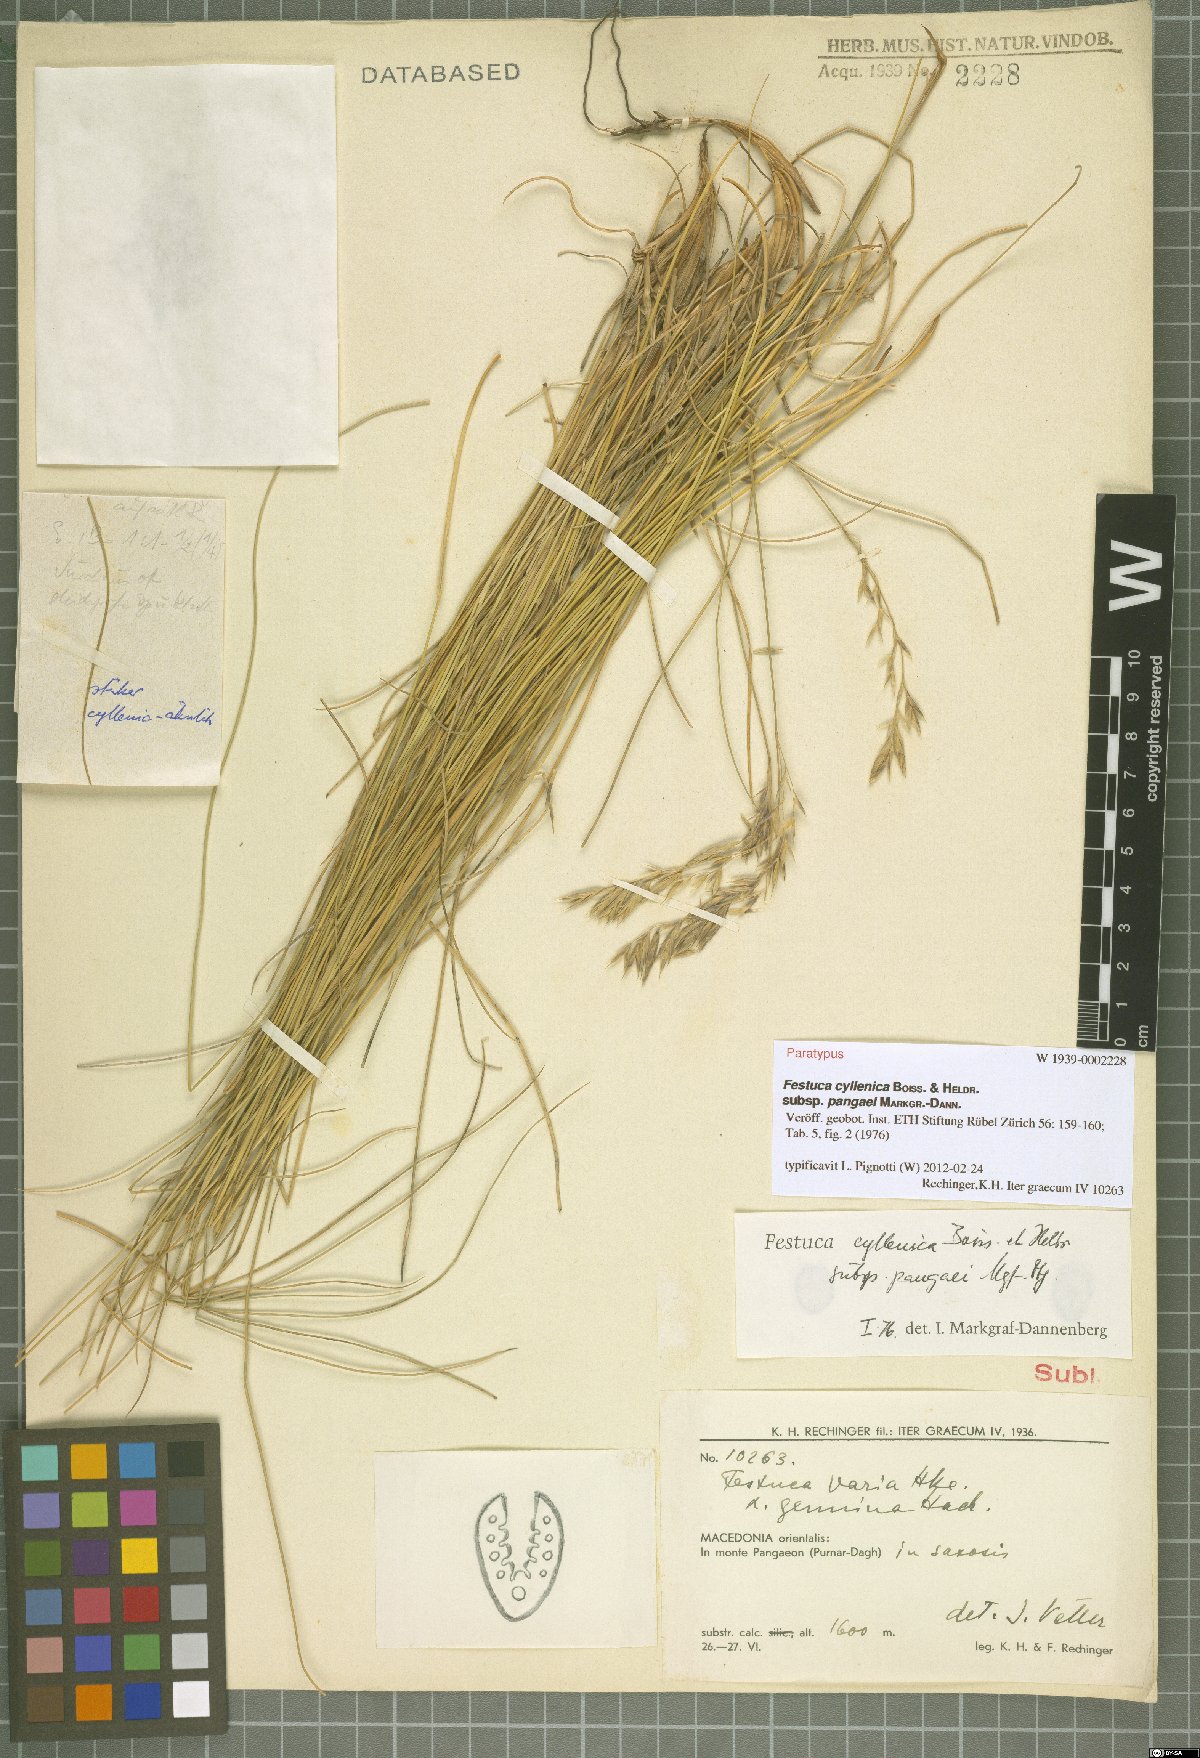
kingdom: Plantae
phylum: Tracheophyta
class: Liliopsida
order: Poales
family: Poaceae
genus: Festuca
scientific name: Festuca cyllenica
